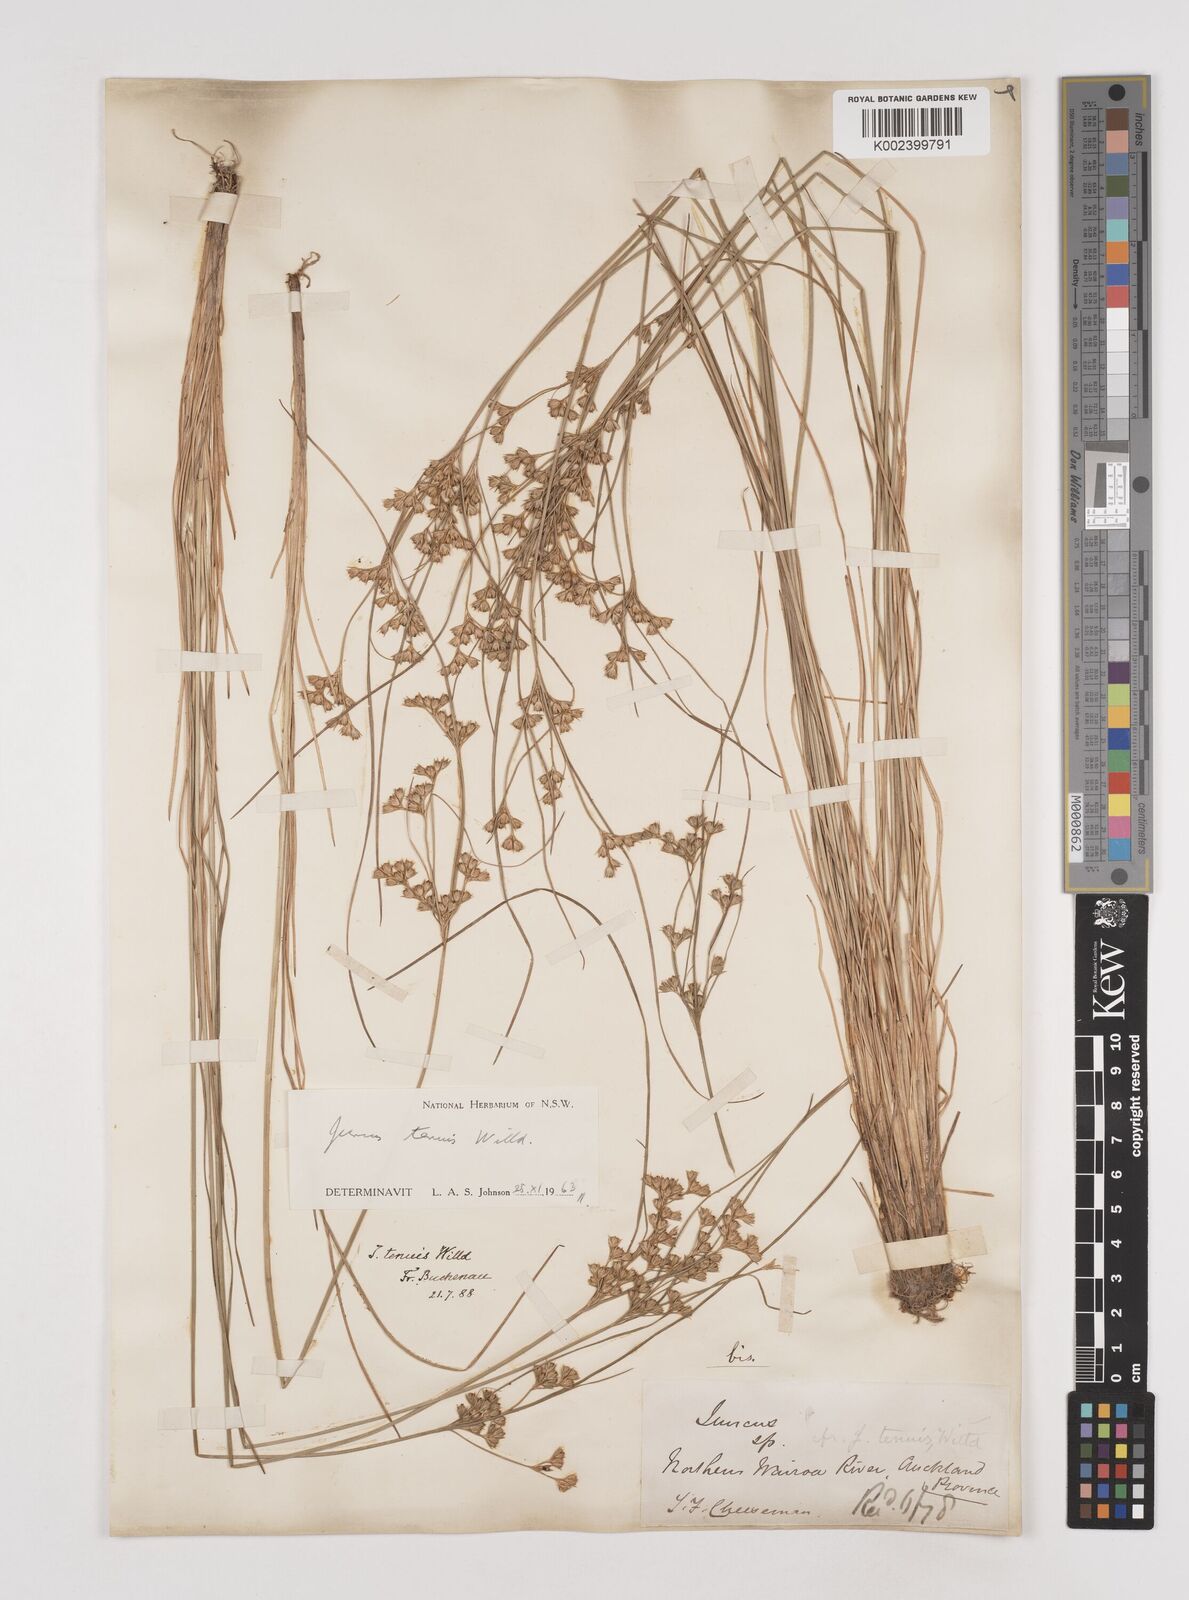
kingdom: Plantae
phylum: Tracheophyta
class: Liliopsida
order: Poales
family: Juncaceae
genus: Juncus
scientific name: Juncus tenuis
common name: Slender rush
